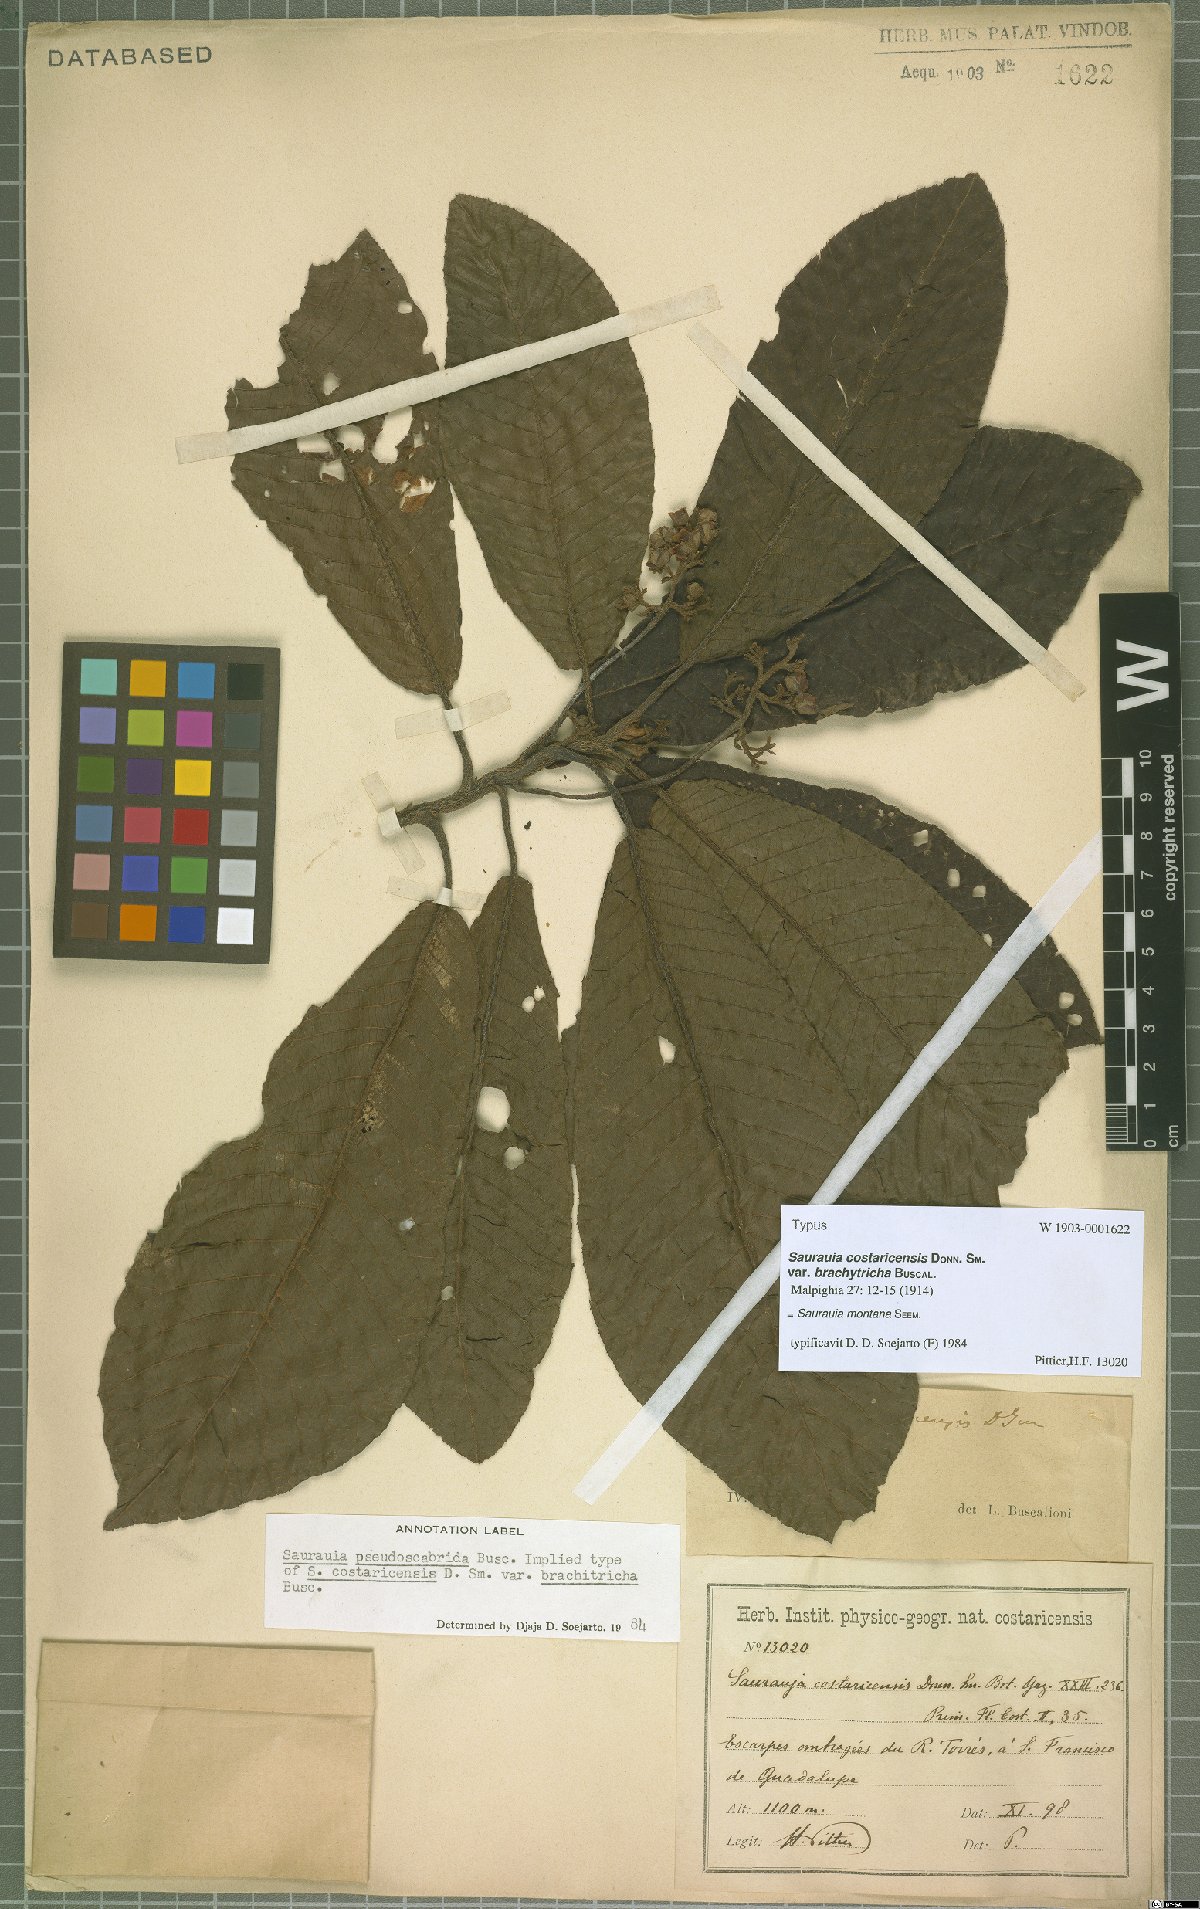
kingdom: Plantae
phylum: Tracheophyta
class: Magnoliopsida
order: Ericales
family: Actinidiaceae
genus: Saurauia
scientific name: Saurauia montana
